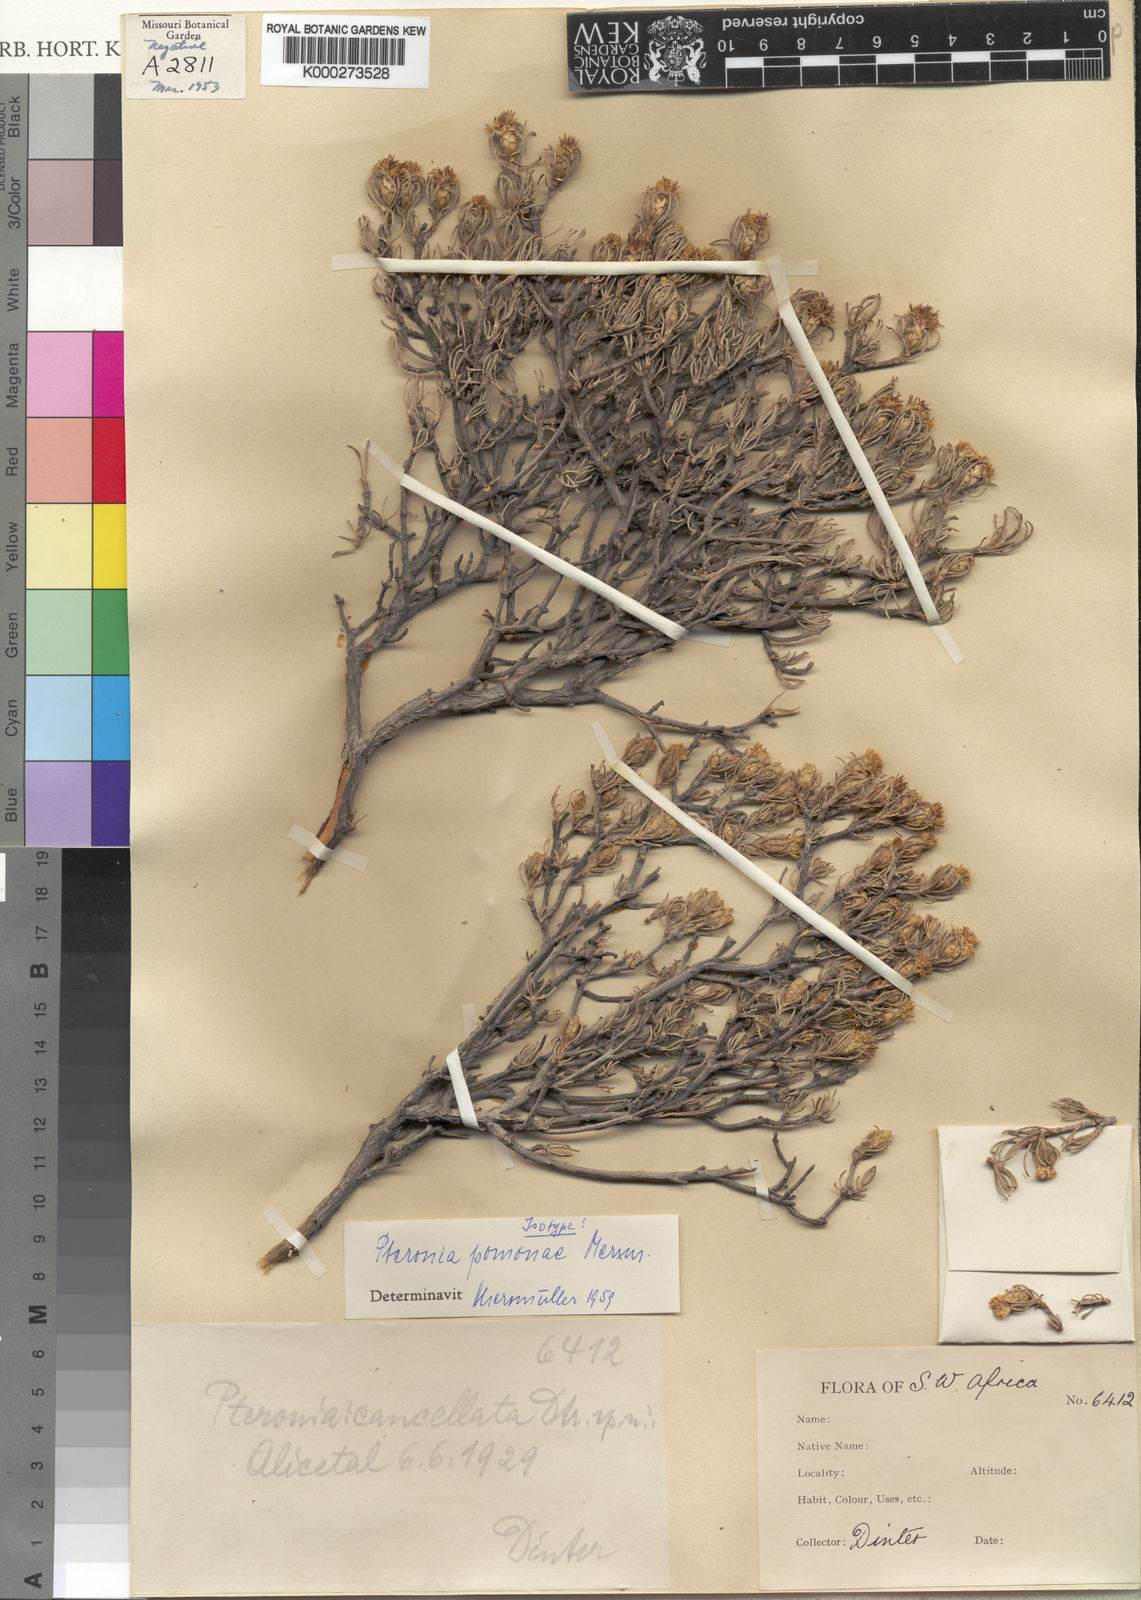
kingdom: Plantae
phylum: Tracheophyta
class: Magnoliopsida
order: Asterales
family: Asteraceae
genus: Pteronia
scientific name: Pteronia pomonae
